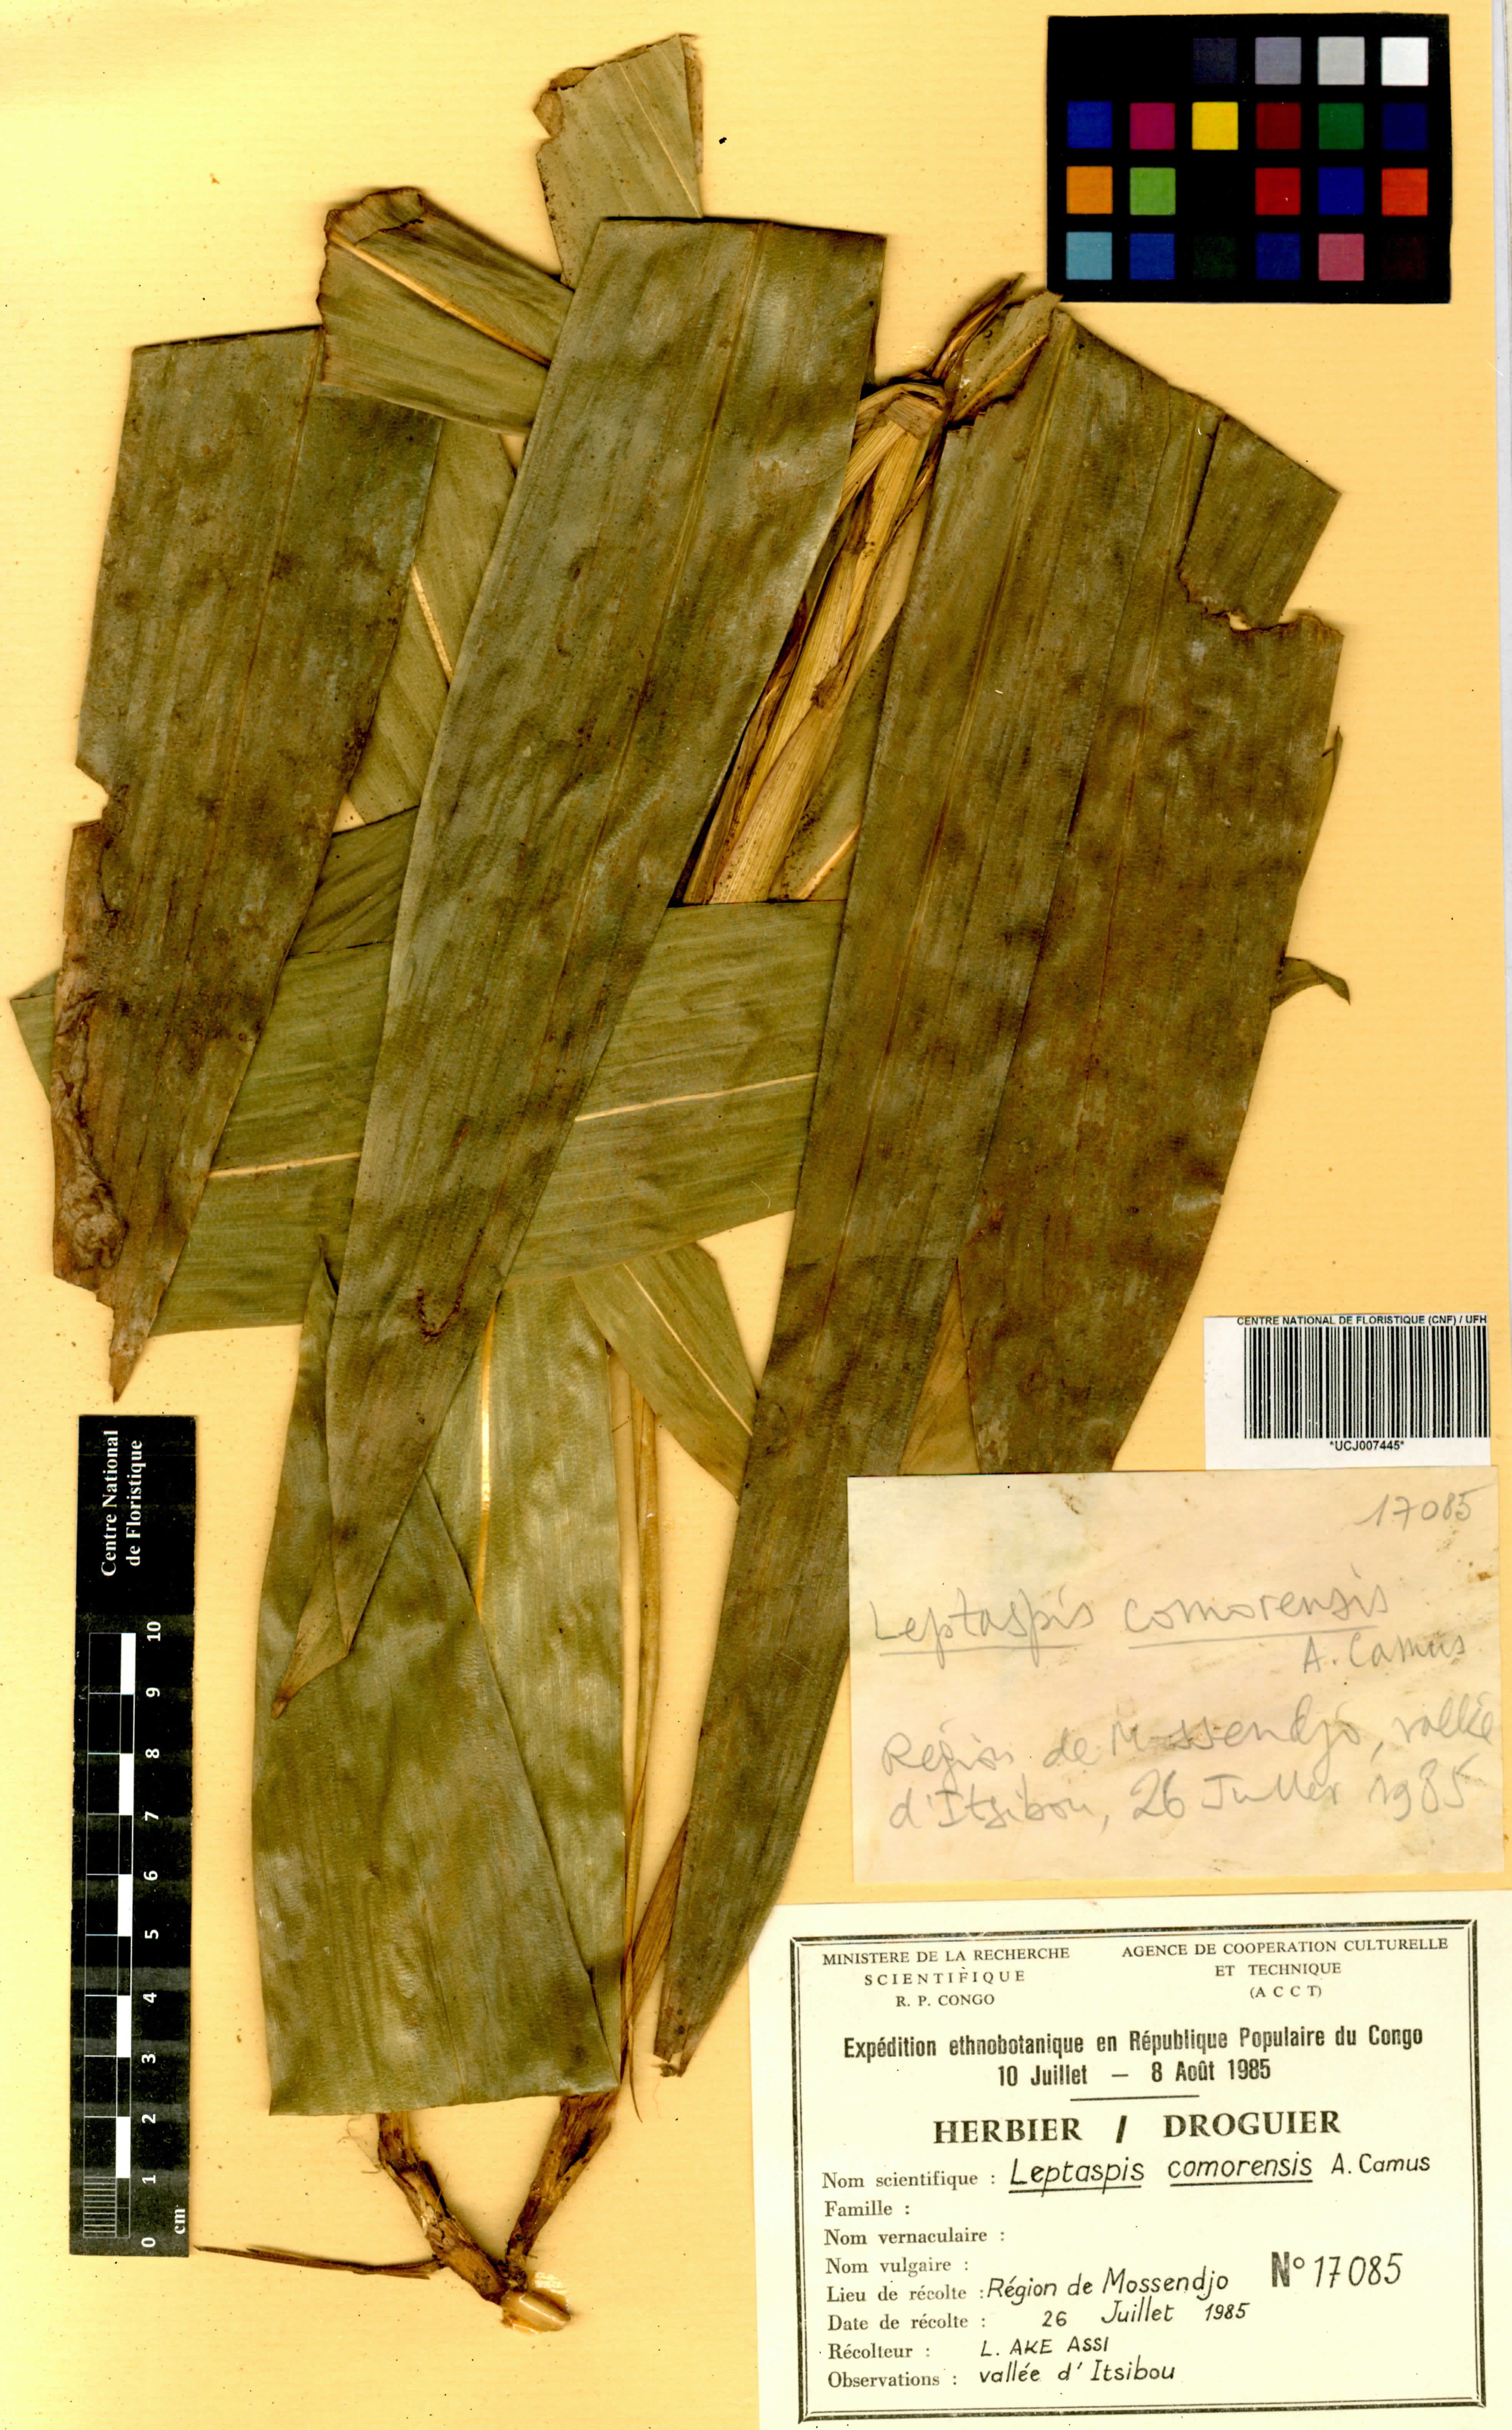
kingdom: Plantae
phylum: Tracheophyta
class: Liliopsida
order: Poales
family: Poaceae
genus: Leptaspis
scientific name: Leptaspis zeylanica
